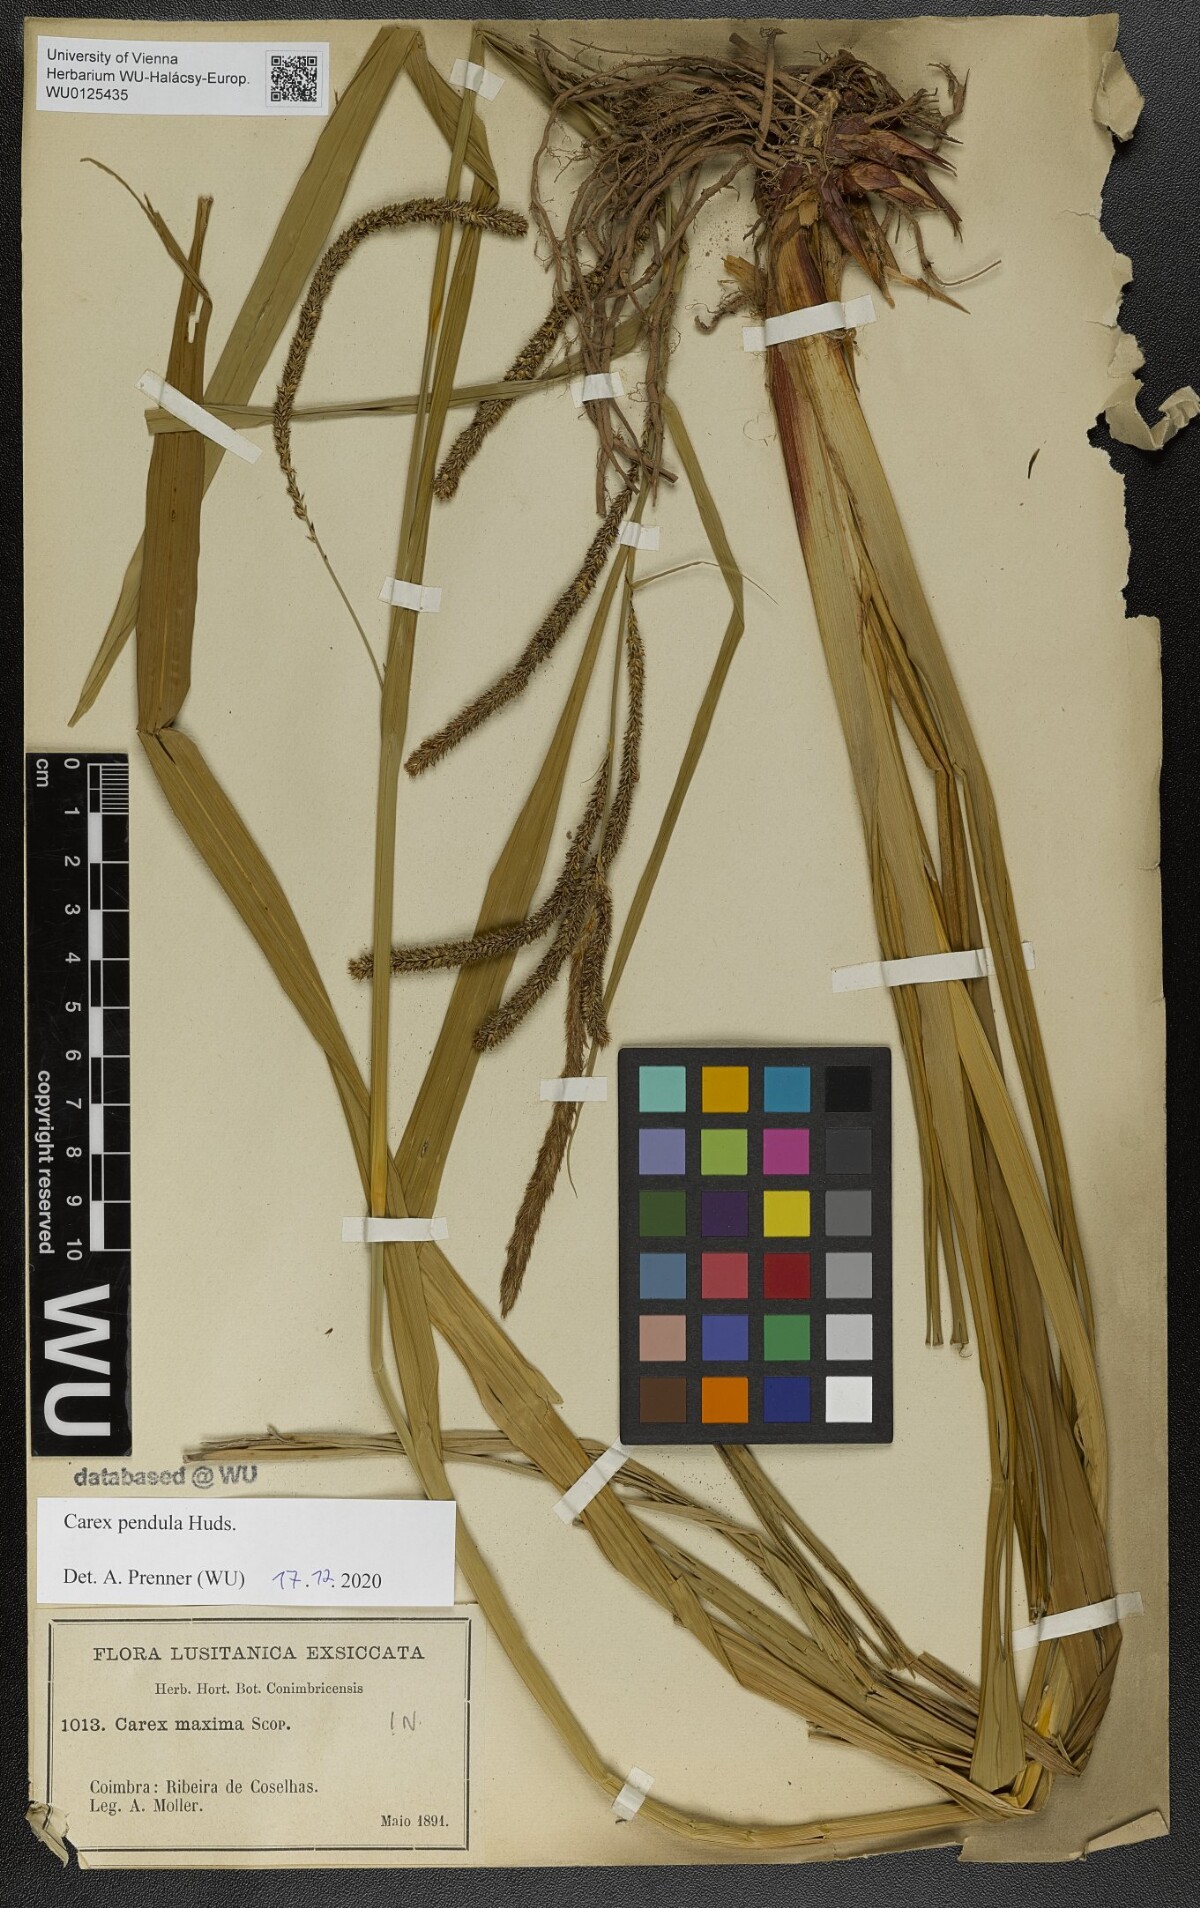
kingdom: Plantae
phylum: Tracheophyta
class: Liliopsida
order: Poales
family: Cyperaceae
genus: Carex
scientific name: Carex pendula
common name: Pendulous sedge
